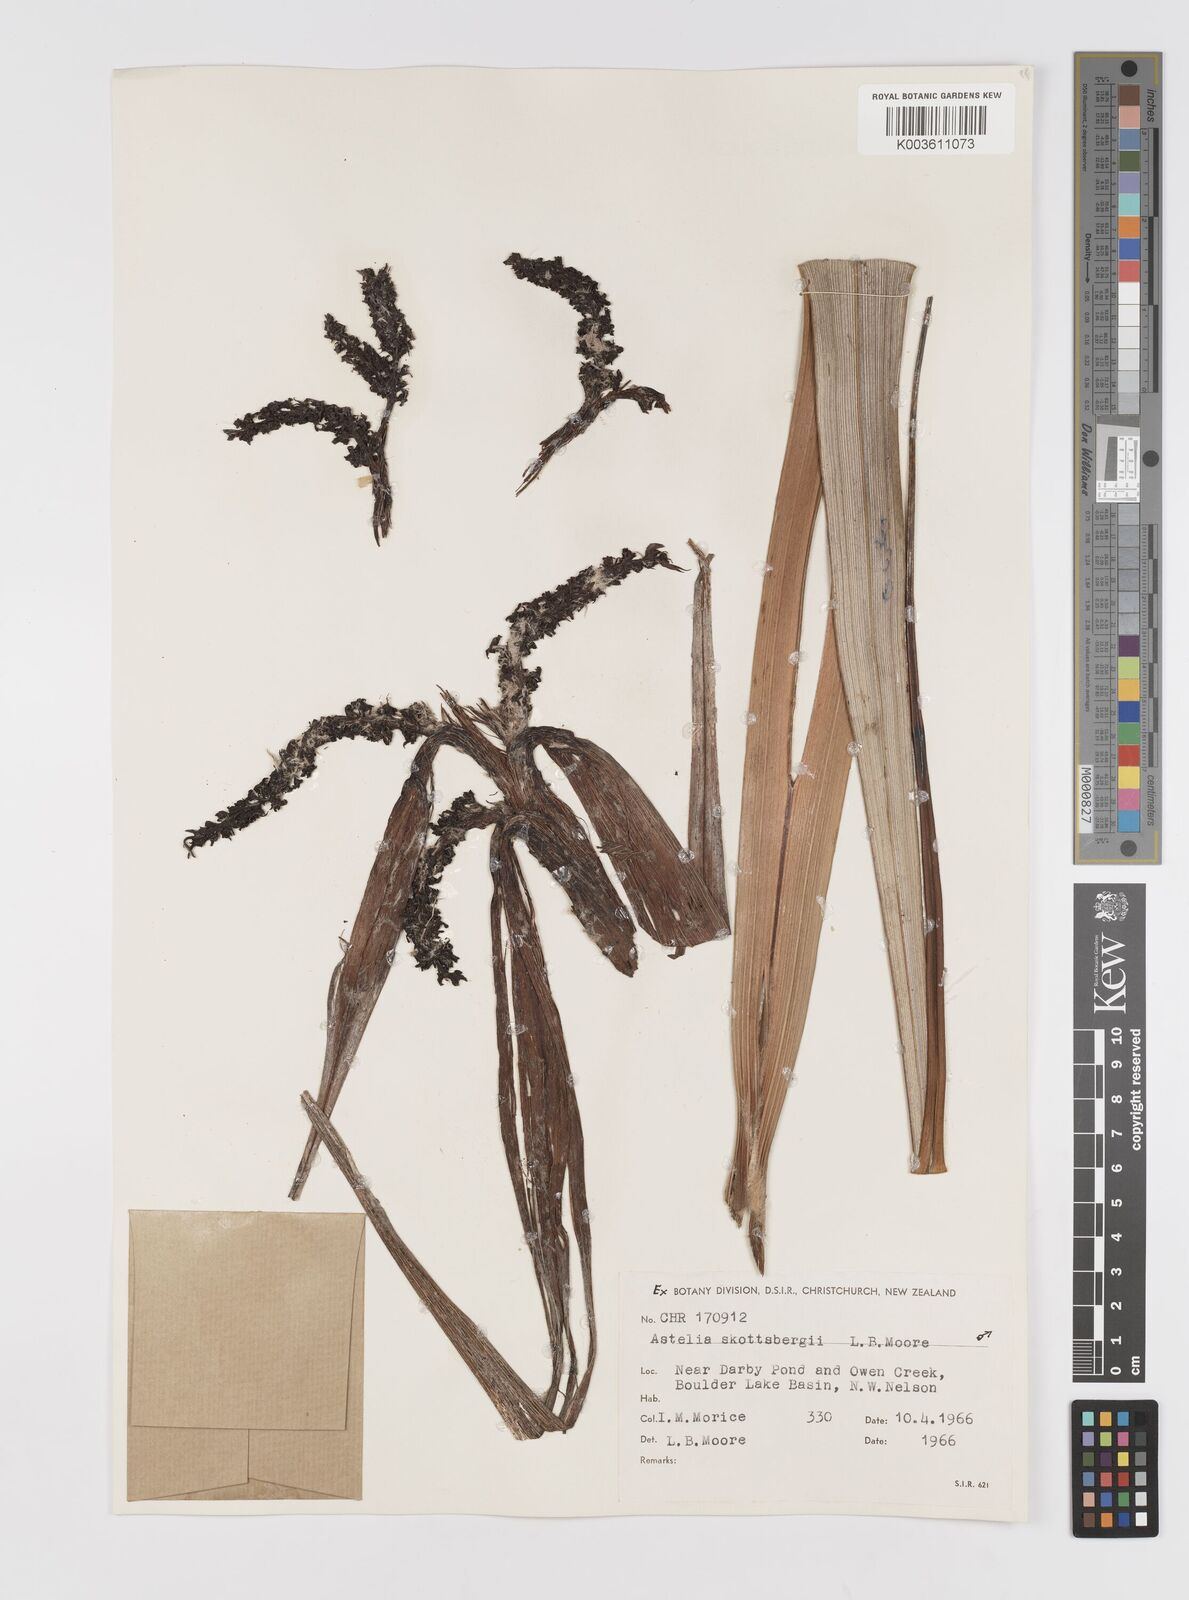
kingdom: Plantae
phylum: Tracheophyta
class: Liliopsida
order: Asparagales
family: Asteliaceae
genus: Astelia
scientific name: Astelia skottsbergii
